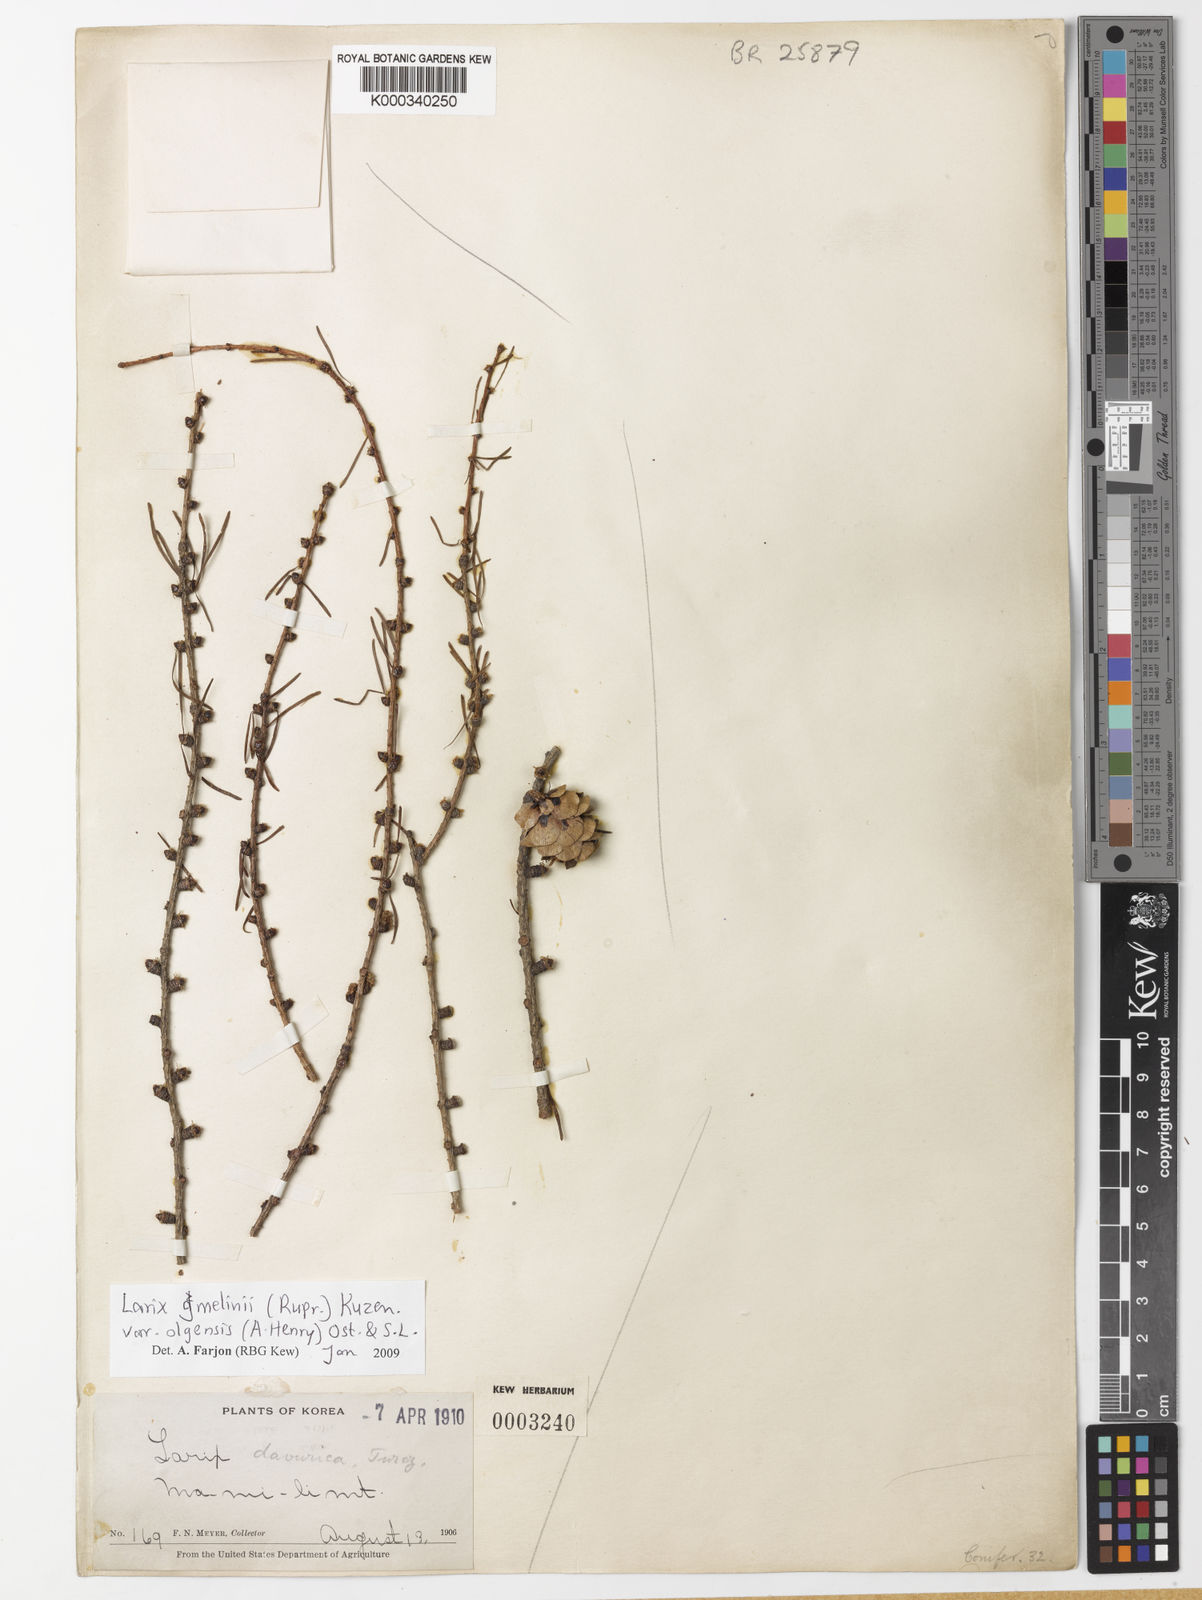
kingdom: Plantae
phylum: Tracheophyta
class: Pinopsida
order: Pinales
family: Pinaceae
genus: Larix
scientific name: Larix gmelinii
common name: Dahurian larch
